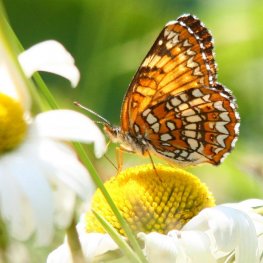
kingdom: Animalia
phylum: Arthropoda
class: Insecta
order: Lepidoptera
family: Nymphalidae
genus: Chlosyne
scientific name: Chlosyne harrisii
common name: Harris's Checkerspot
